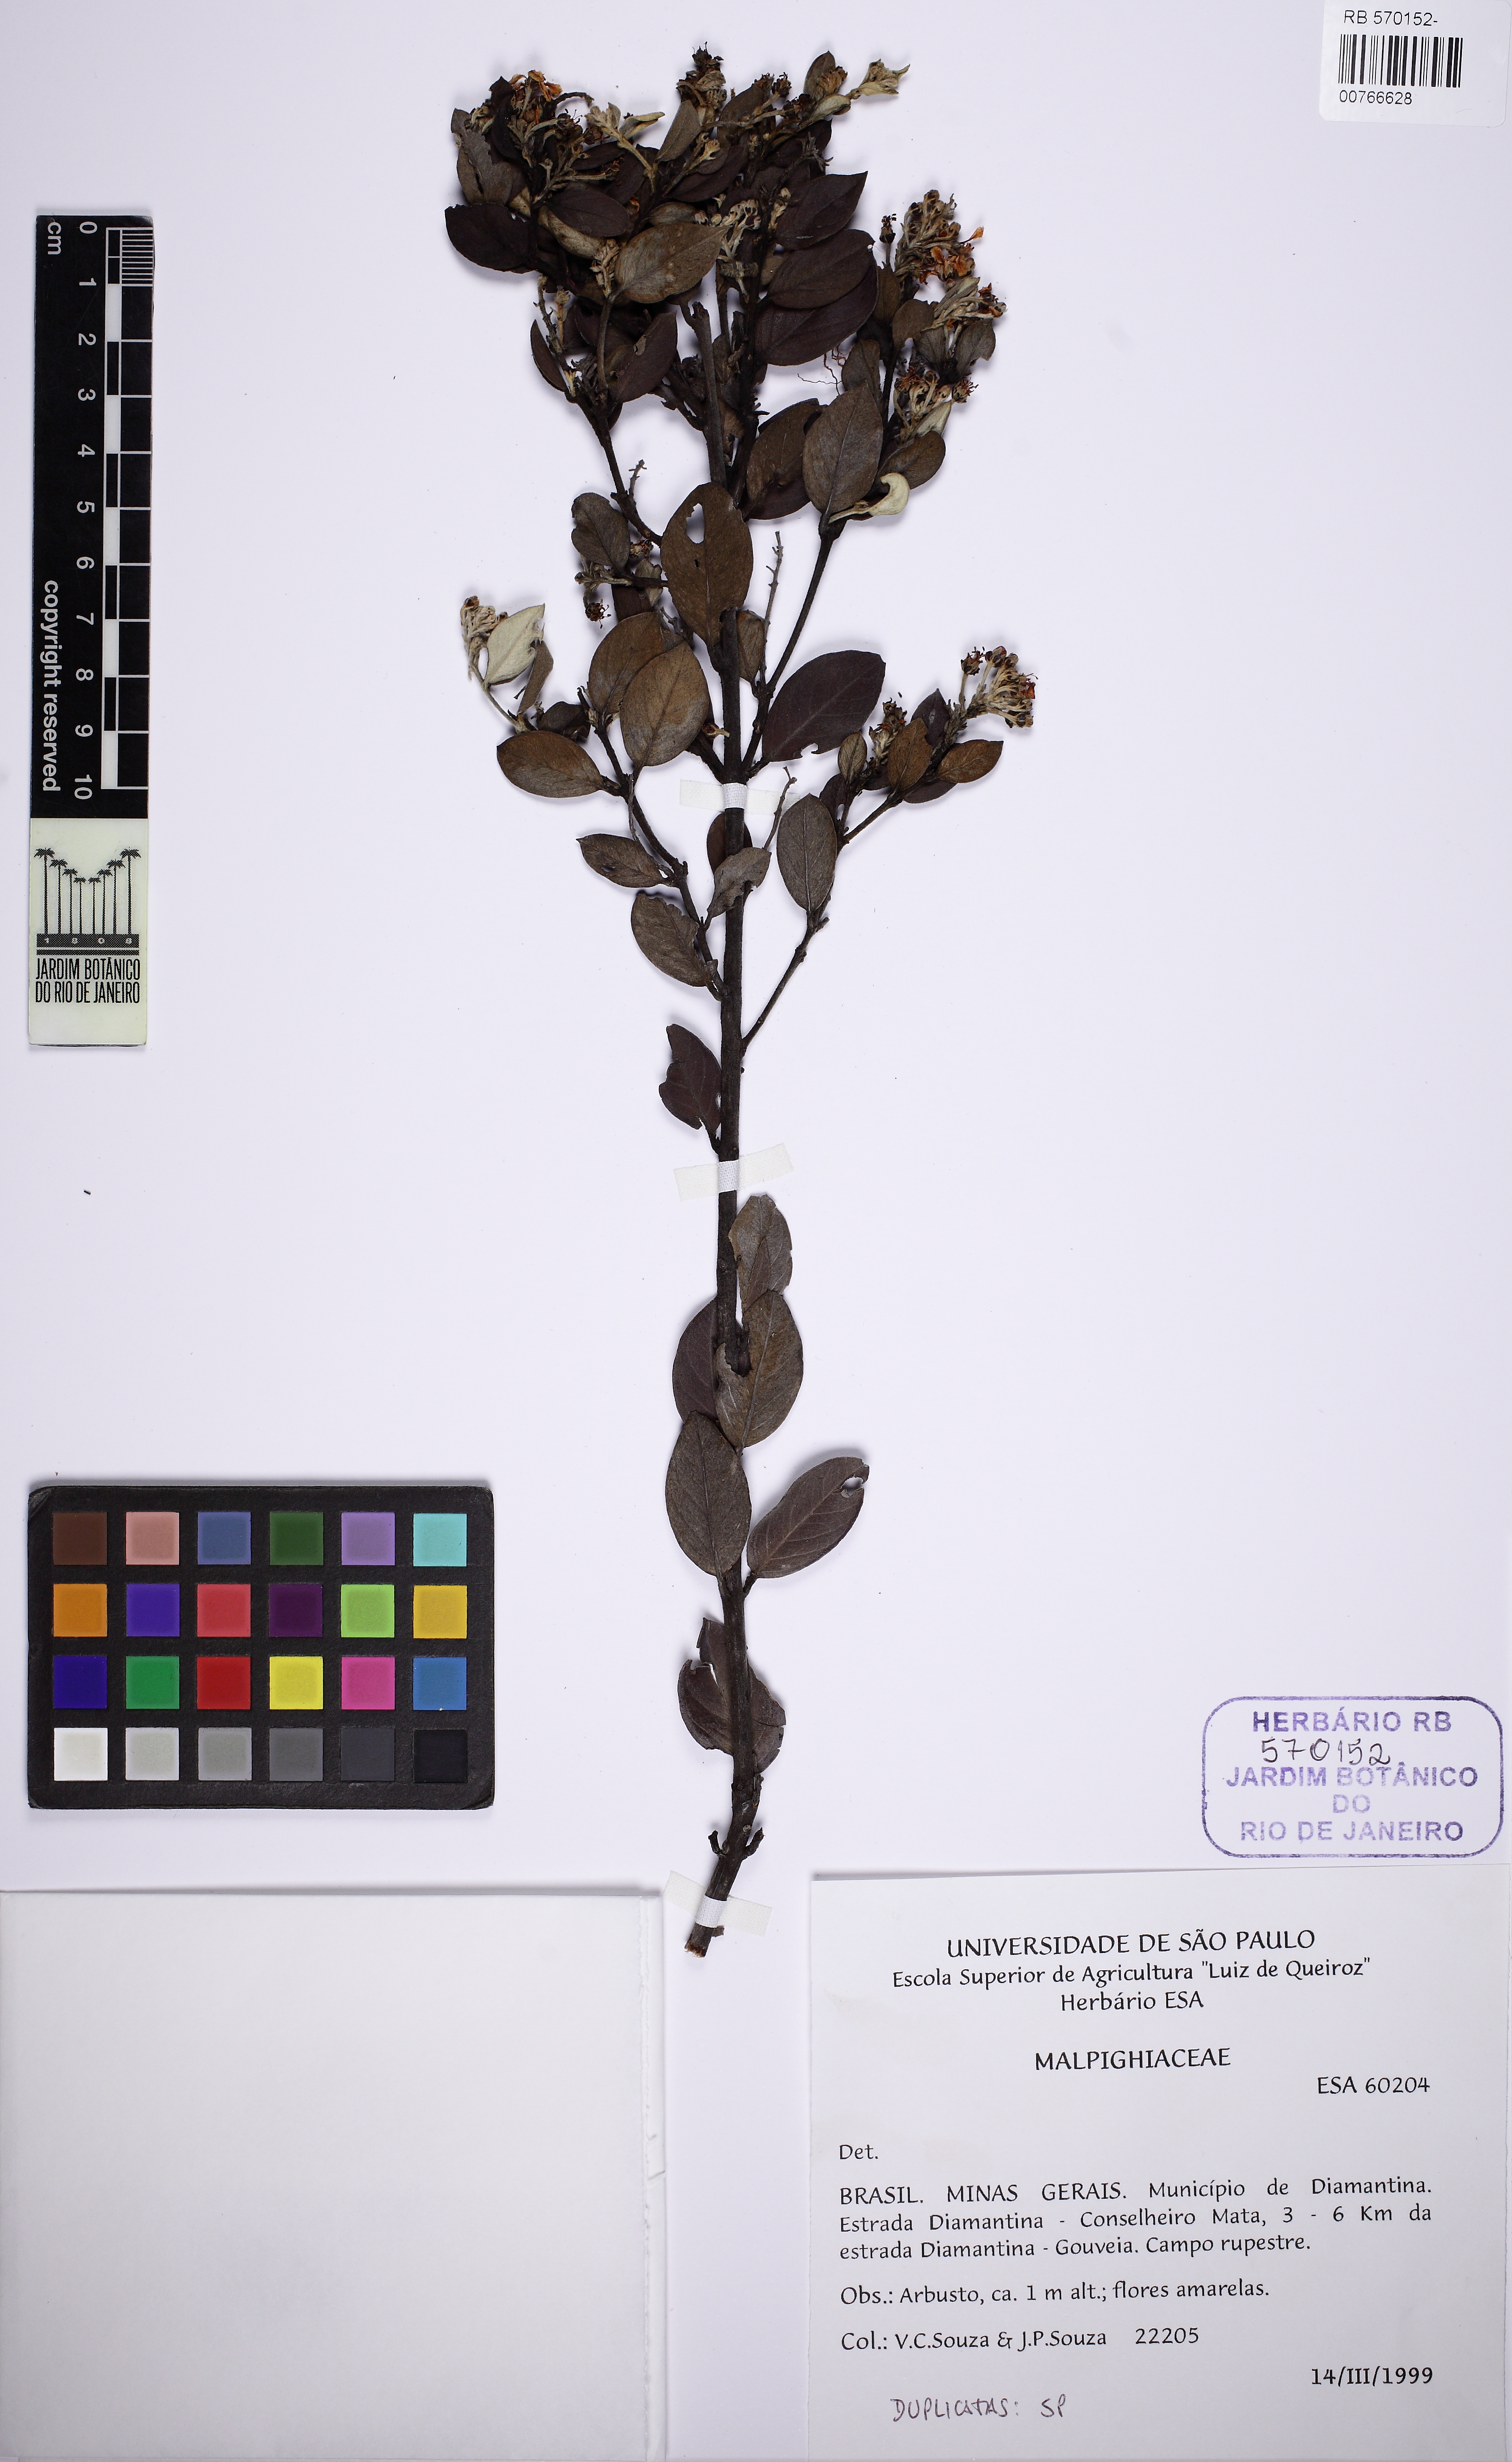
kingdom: Plantae
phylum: Tracheophyta
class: Magnoliopsida
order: Malpighiales
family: Malpighiaceae
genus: Glicophyllum
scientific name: Glicophyllum microphyllum
